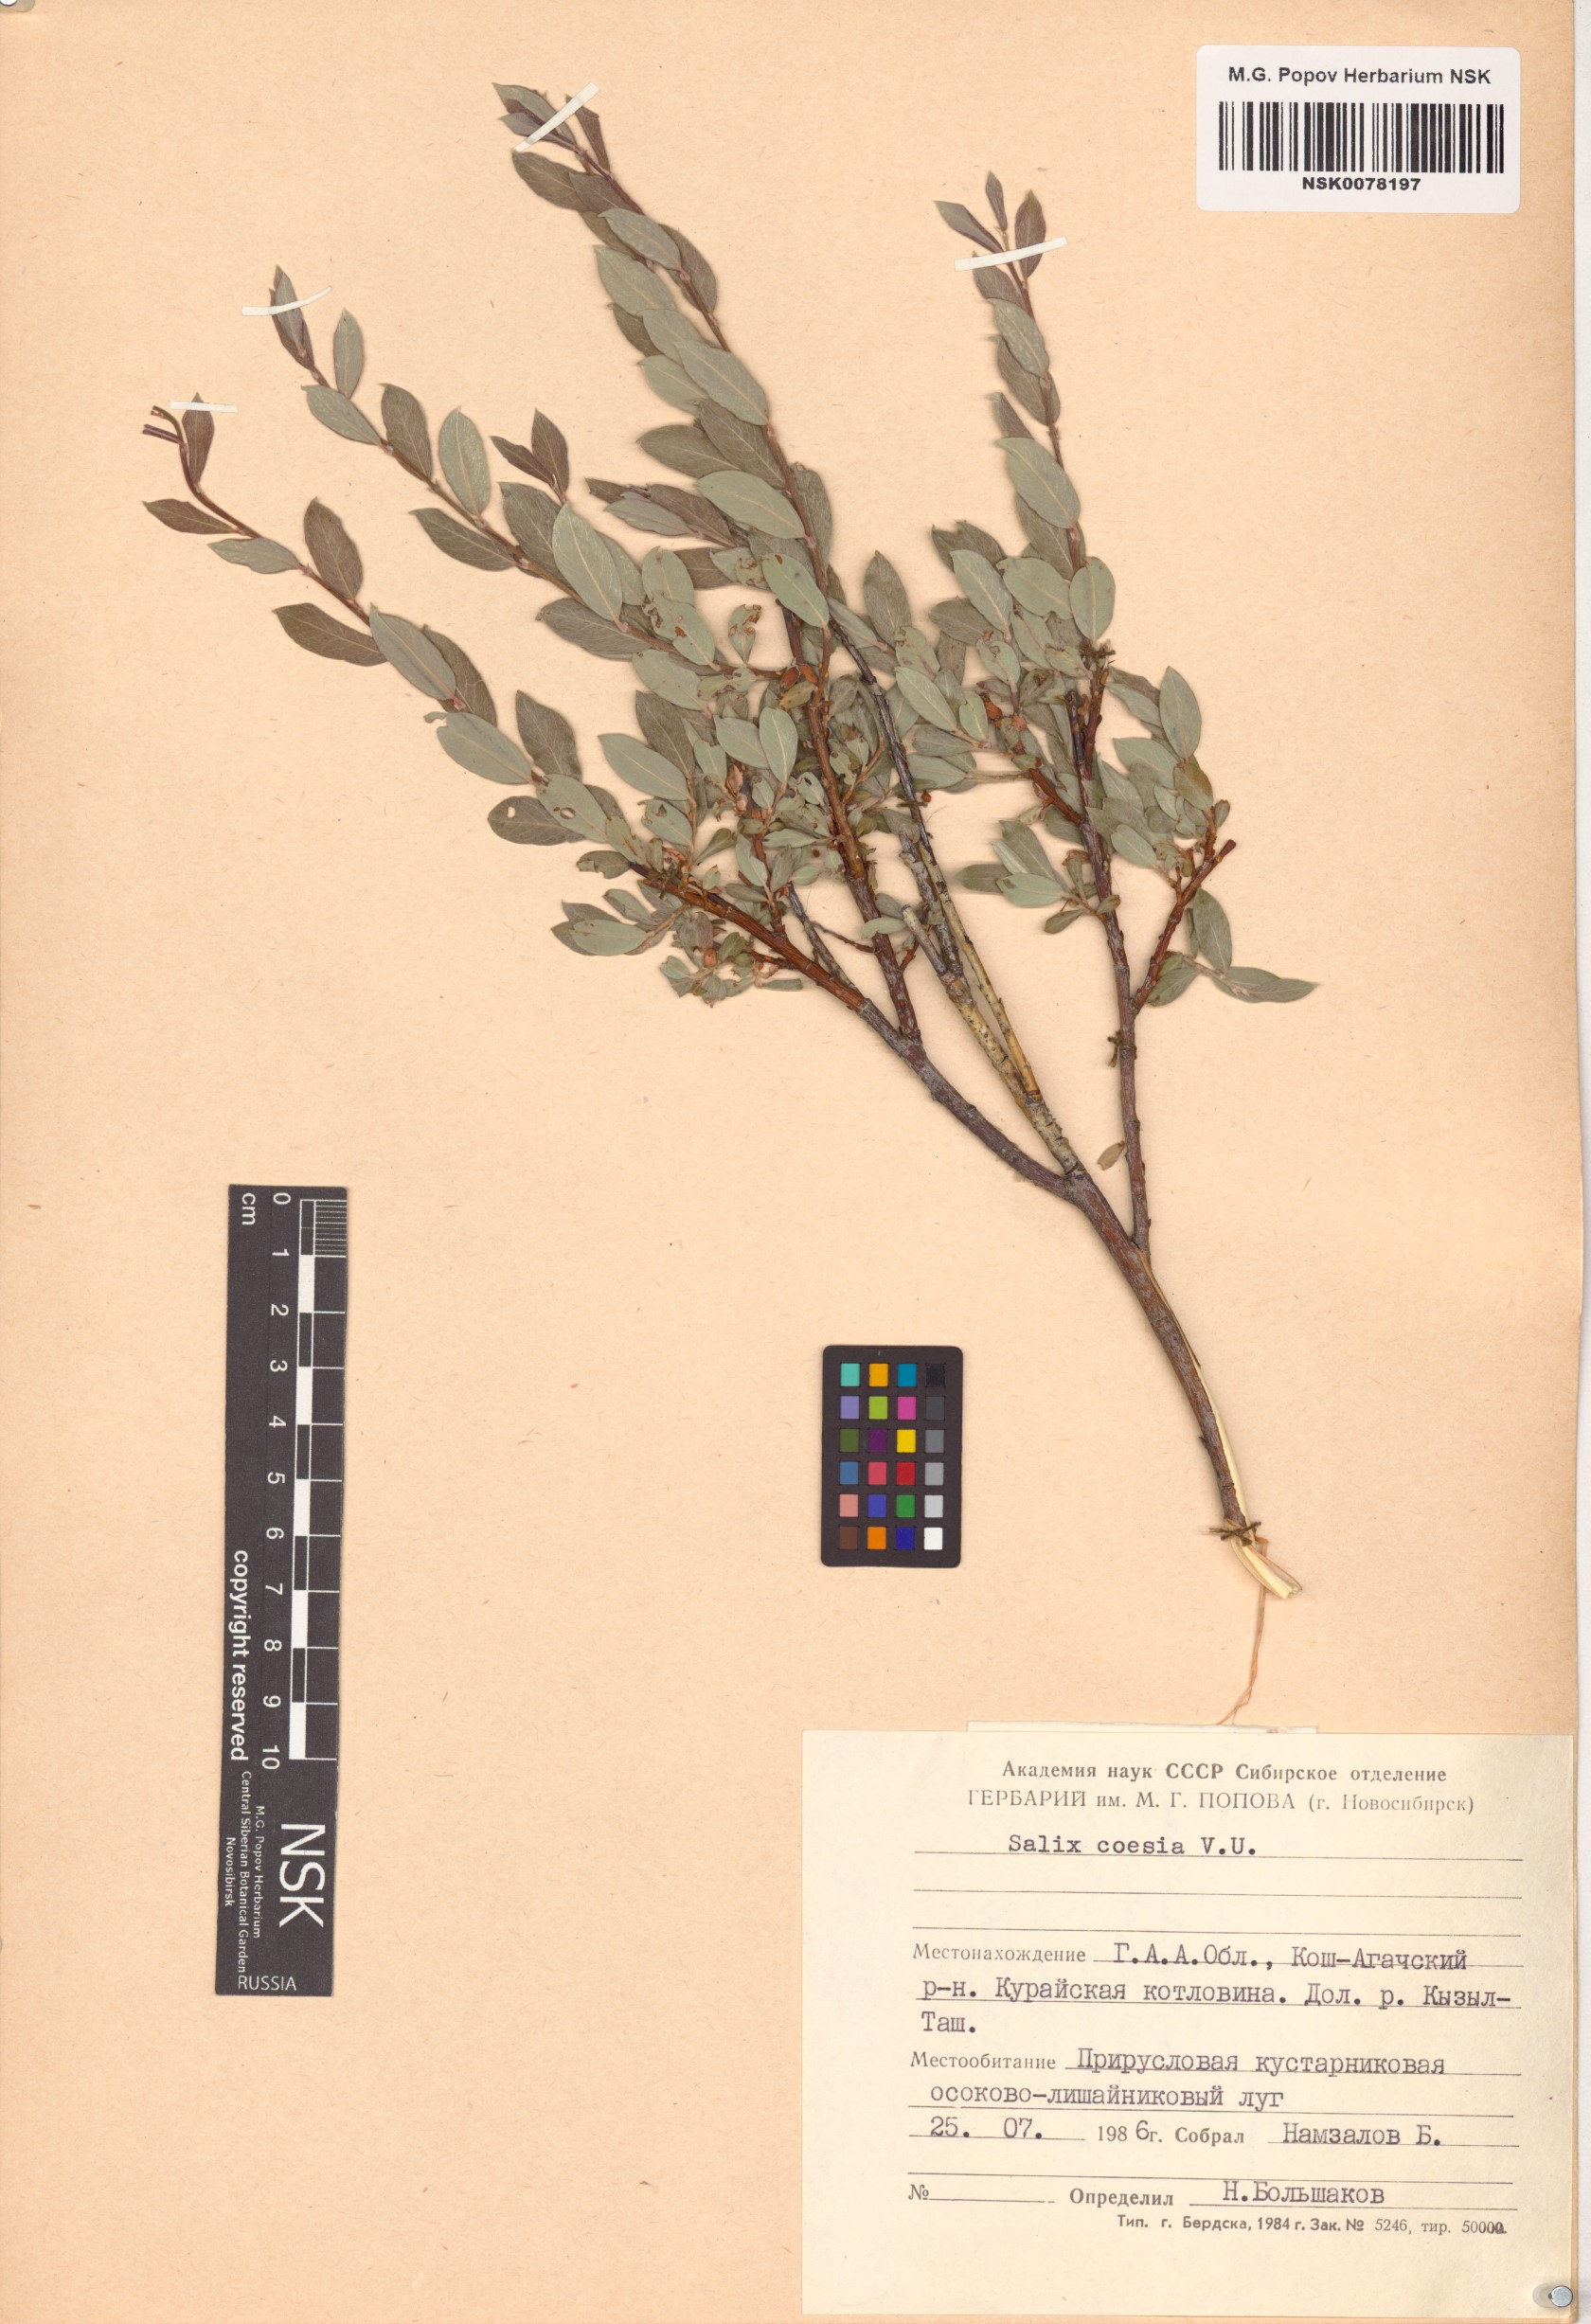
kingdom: Plantae
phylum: Tracheophyta
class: Magnoliopsida
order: Malpighiales
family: Salicaceae
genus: Salix
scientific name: Salix caesia
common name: Blue willow
